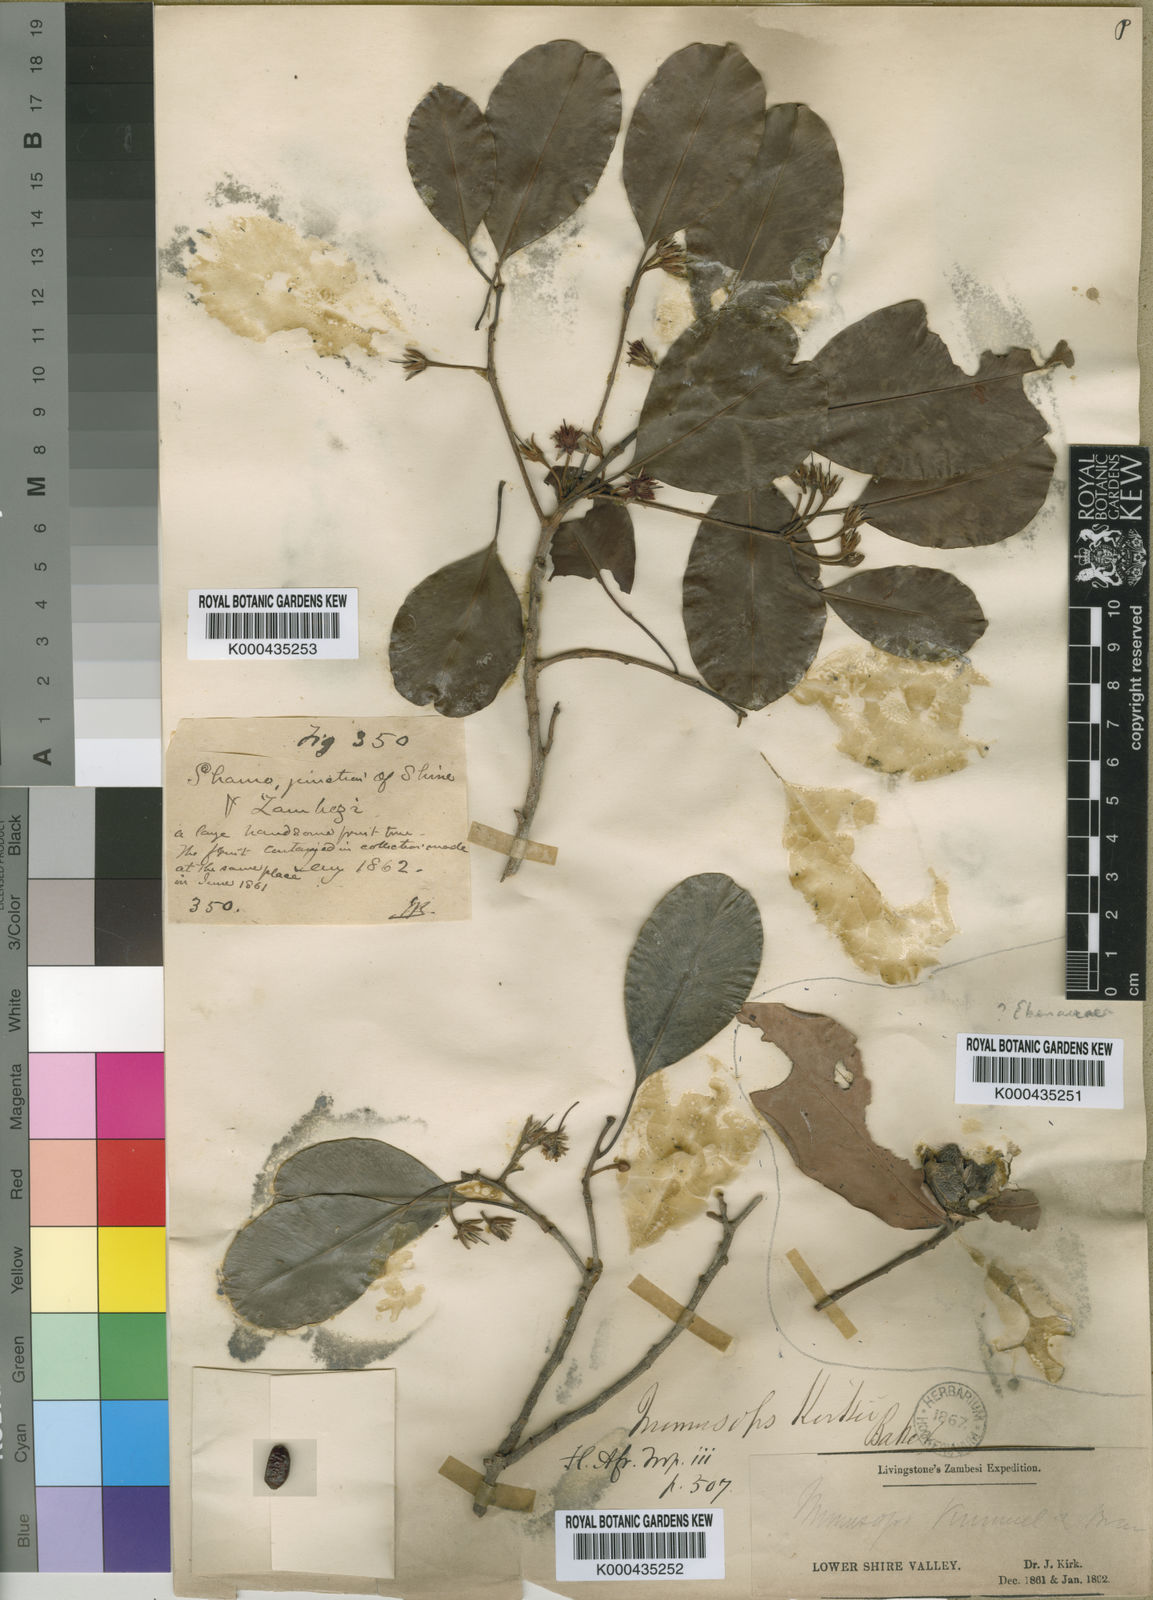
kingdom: Plantae
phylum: Tracheophyta
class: Magnoliopsida
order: Ericales
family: Sapotaceae
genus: Mimusops
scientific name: Mimusops
